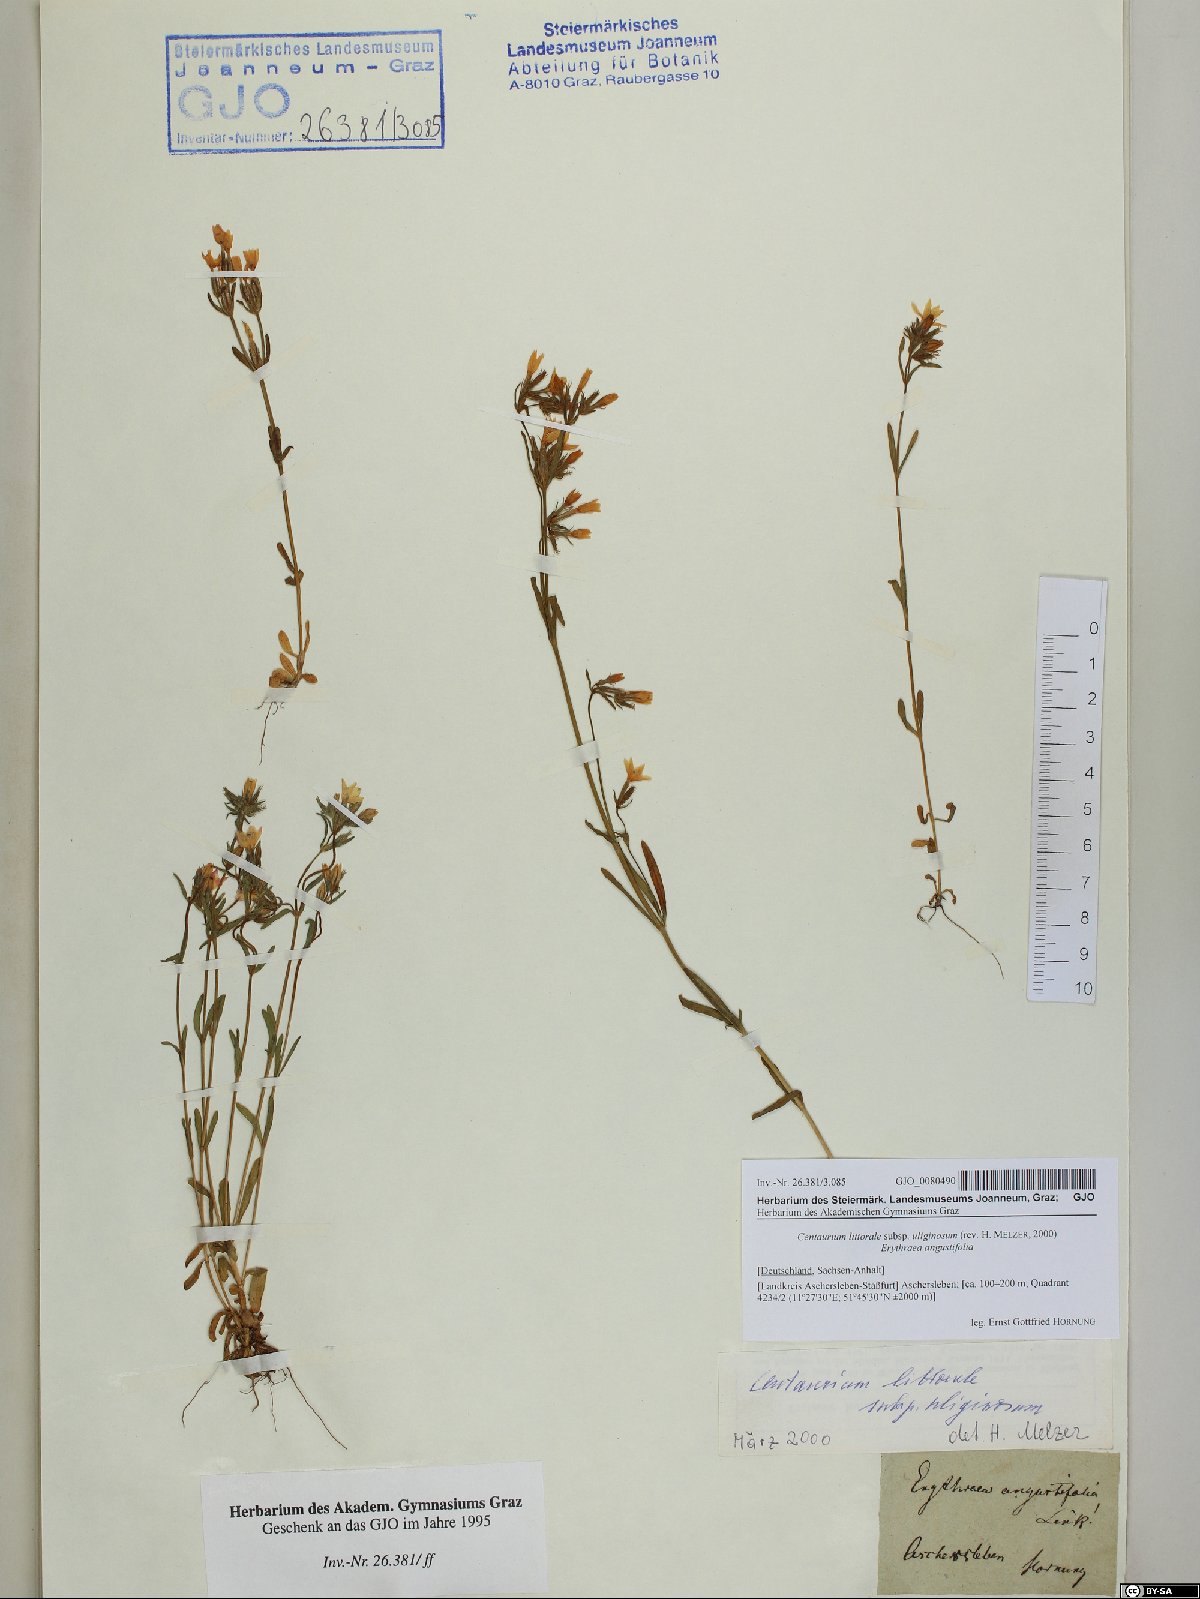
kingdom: Plantae
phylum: Tracheophyta
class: Magnoliopsida
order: Gentianales
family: Gentianaceae
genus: Centaurium
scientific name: Centaurium littorale
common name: Seaside centaury
